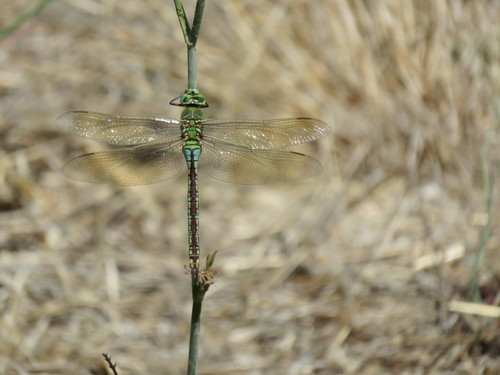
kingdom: Animalia
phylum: Arthropoda
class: Insecta
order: Odonata
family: Aeshnidae
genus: Anax
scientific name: Anax imperator
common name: Emperor dragonfly
